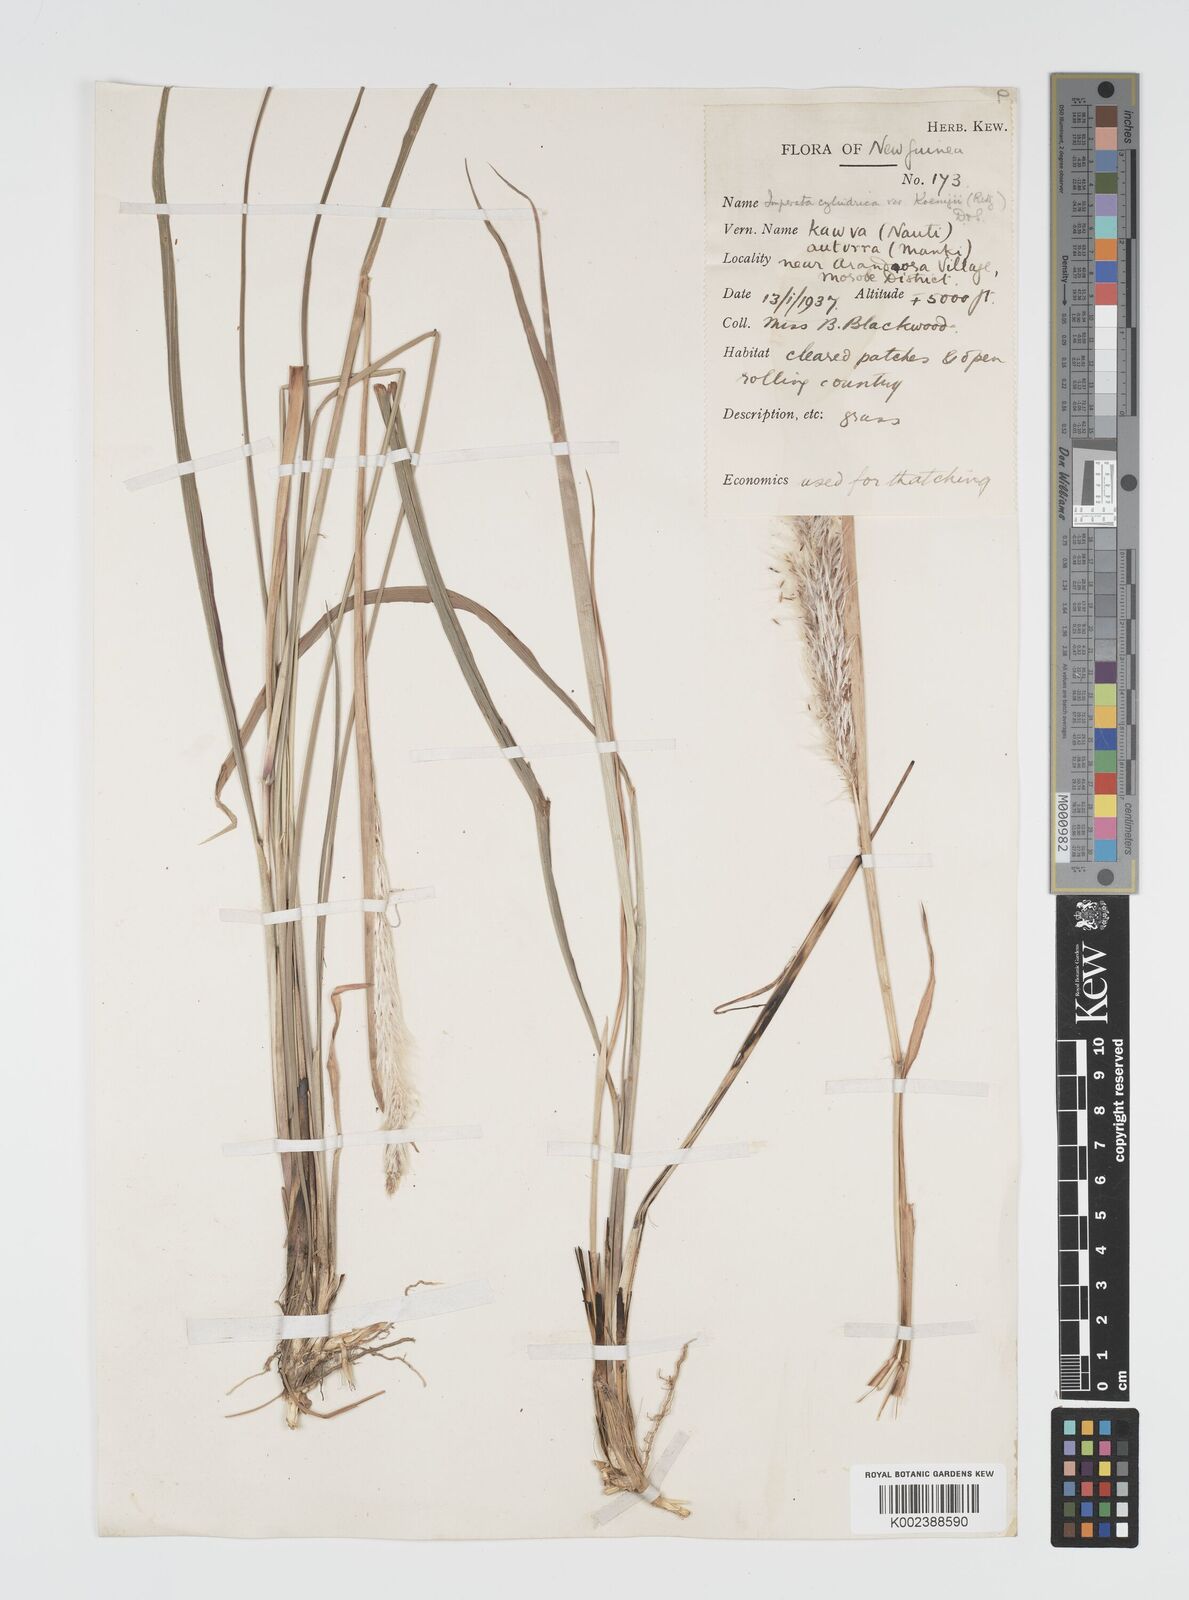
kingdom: Plantae
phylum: Tracheophyta
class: Liliopsida
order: Poales
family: Poaceae
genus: Imperata
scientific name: Imperata cylindrica
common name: Cogongrass
